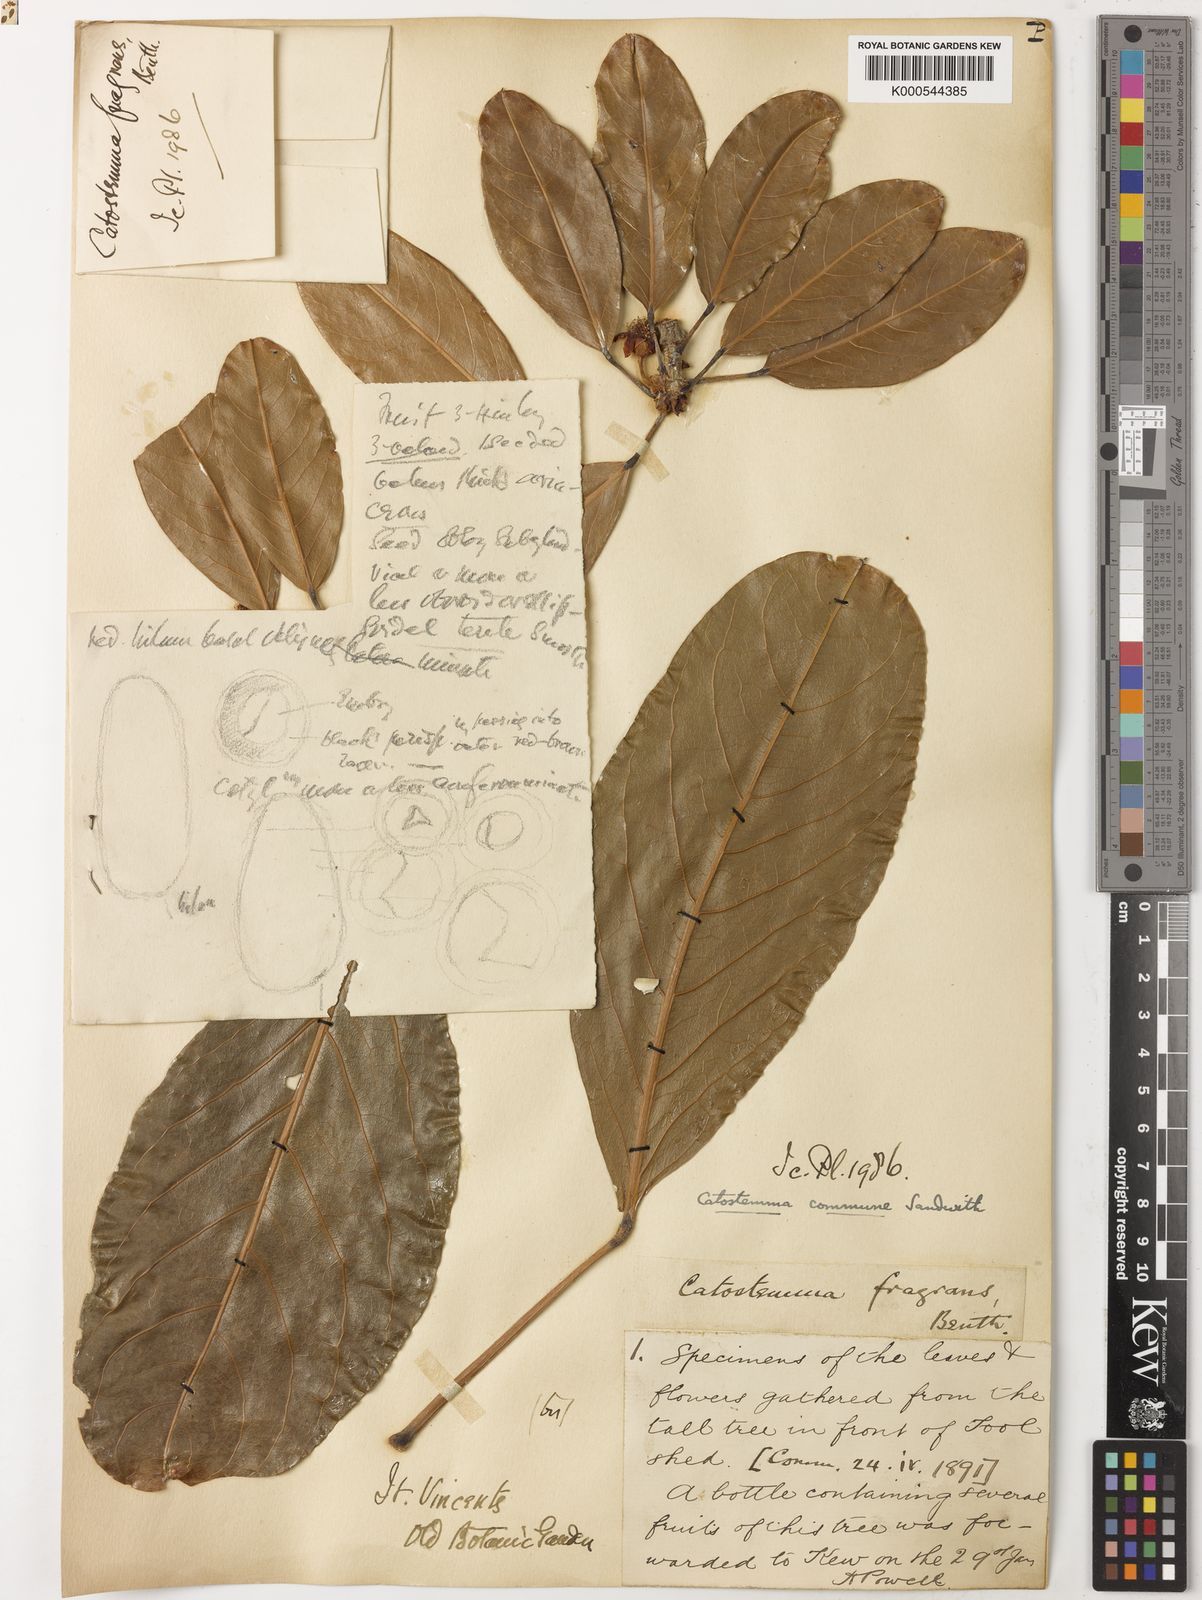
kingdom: Plantae
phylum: Tracheophyta
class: Magnoliopsida
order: Malvales
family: Malvaceae
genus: Catostemma
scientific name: Catostemma commune
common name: Baromalli
